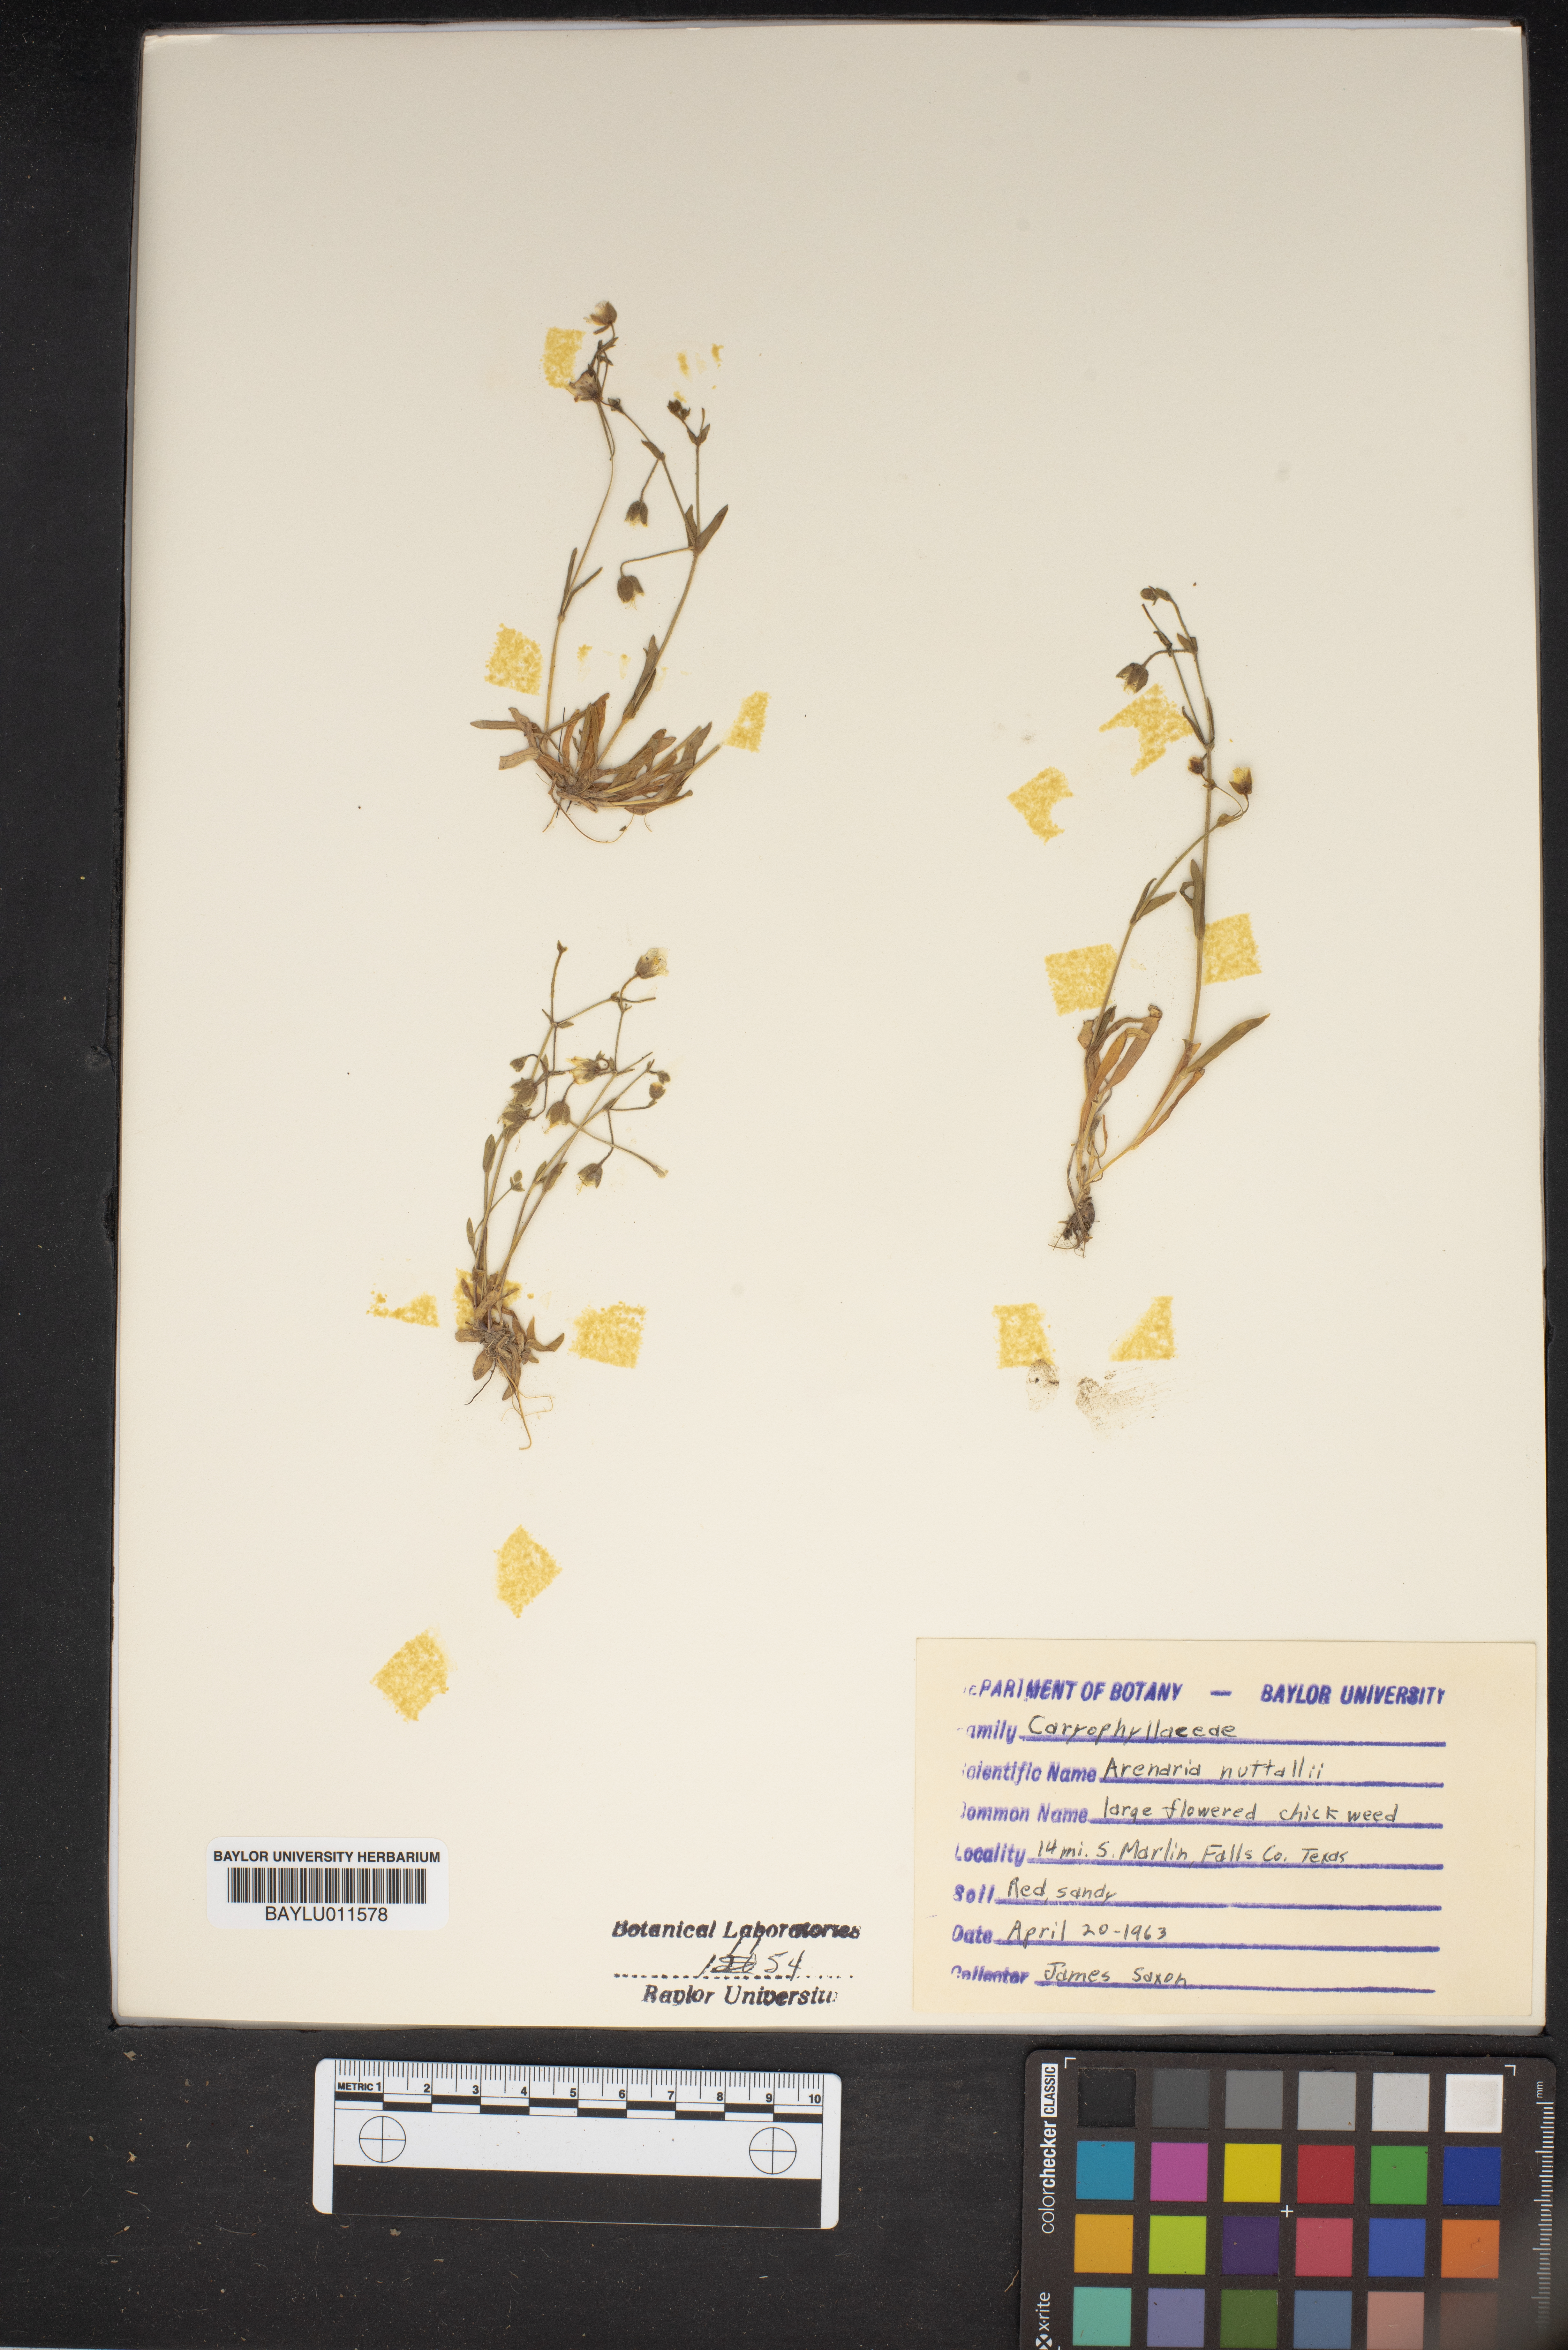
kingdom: Plantae
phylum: Tracheophyta
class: Magnoliopsida
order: Caryophyllales
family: Caryophyllaceae
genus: Sabulina
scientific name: Sabulina nuttallii
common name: Nuttall's stitchwort
